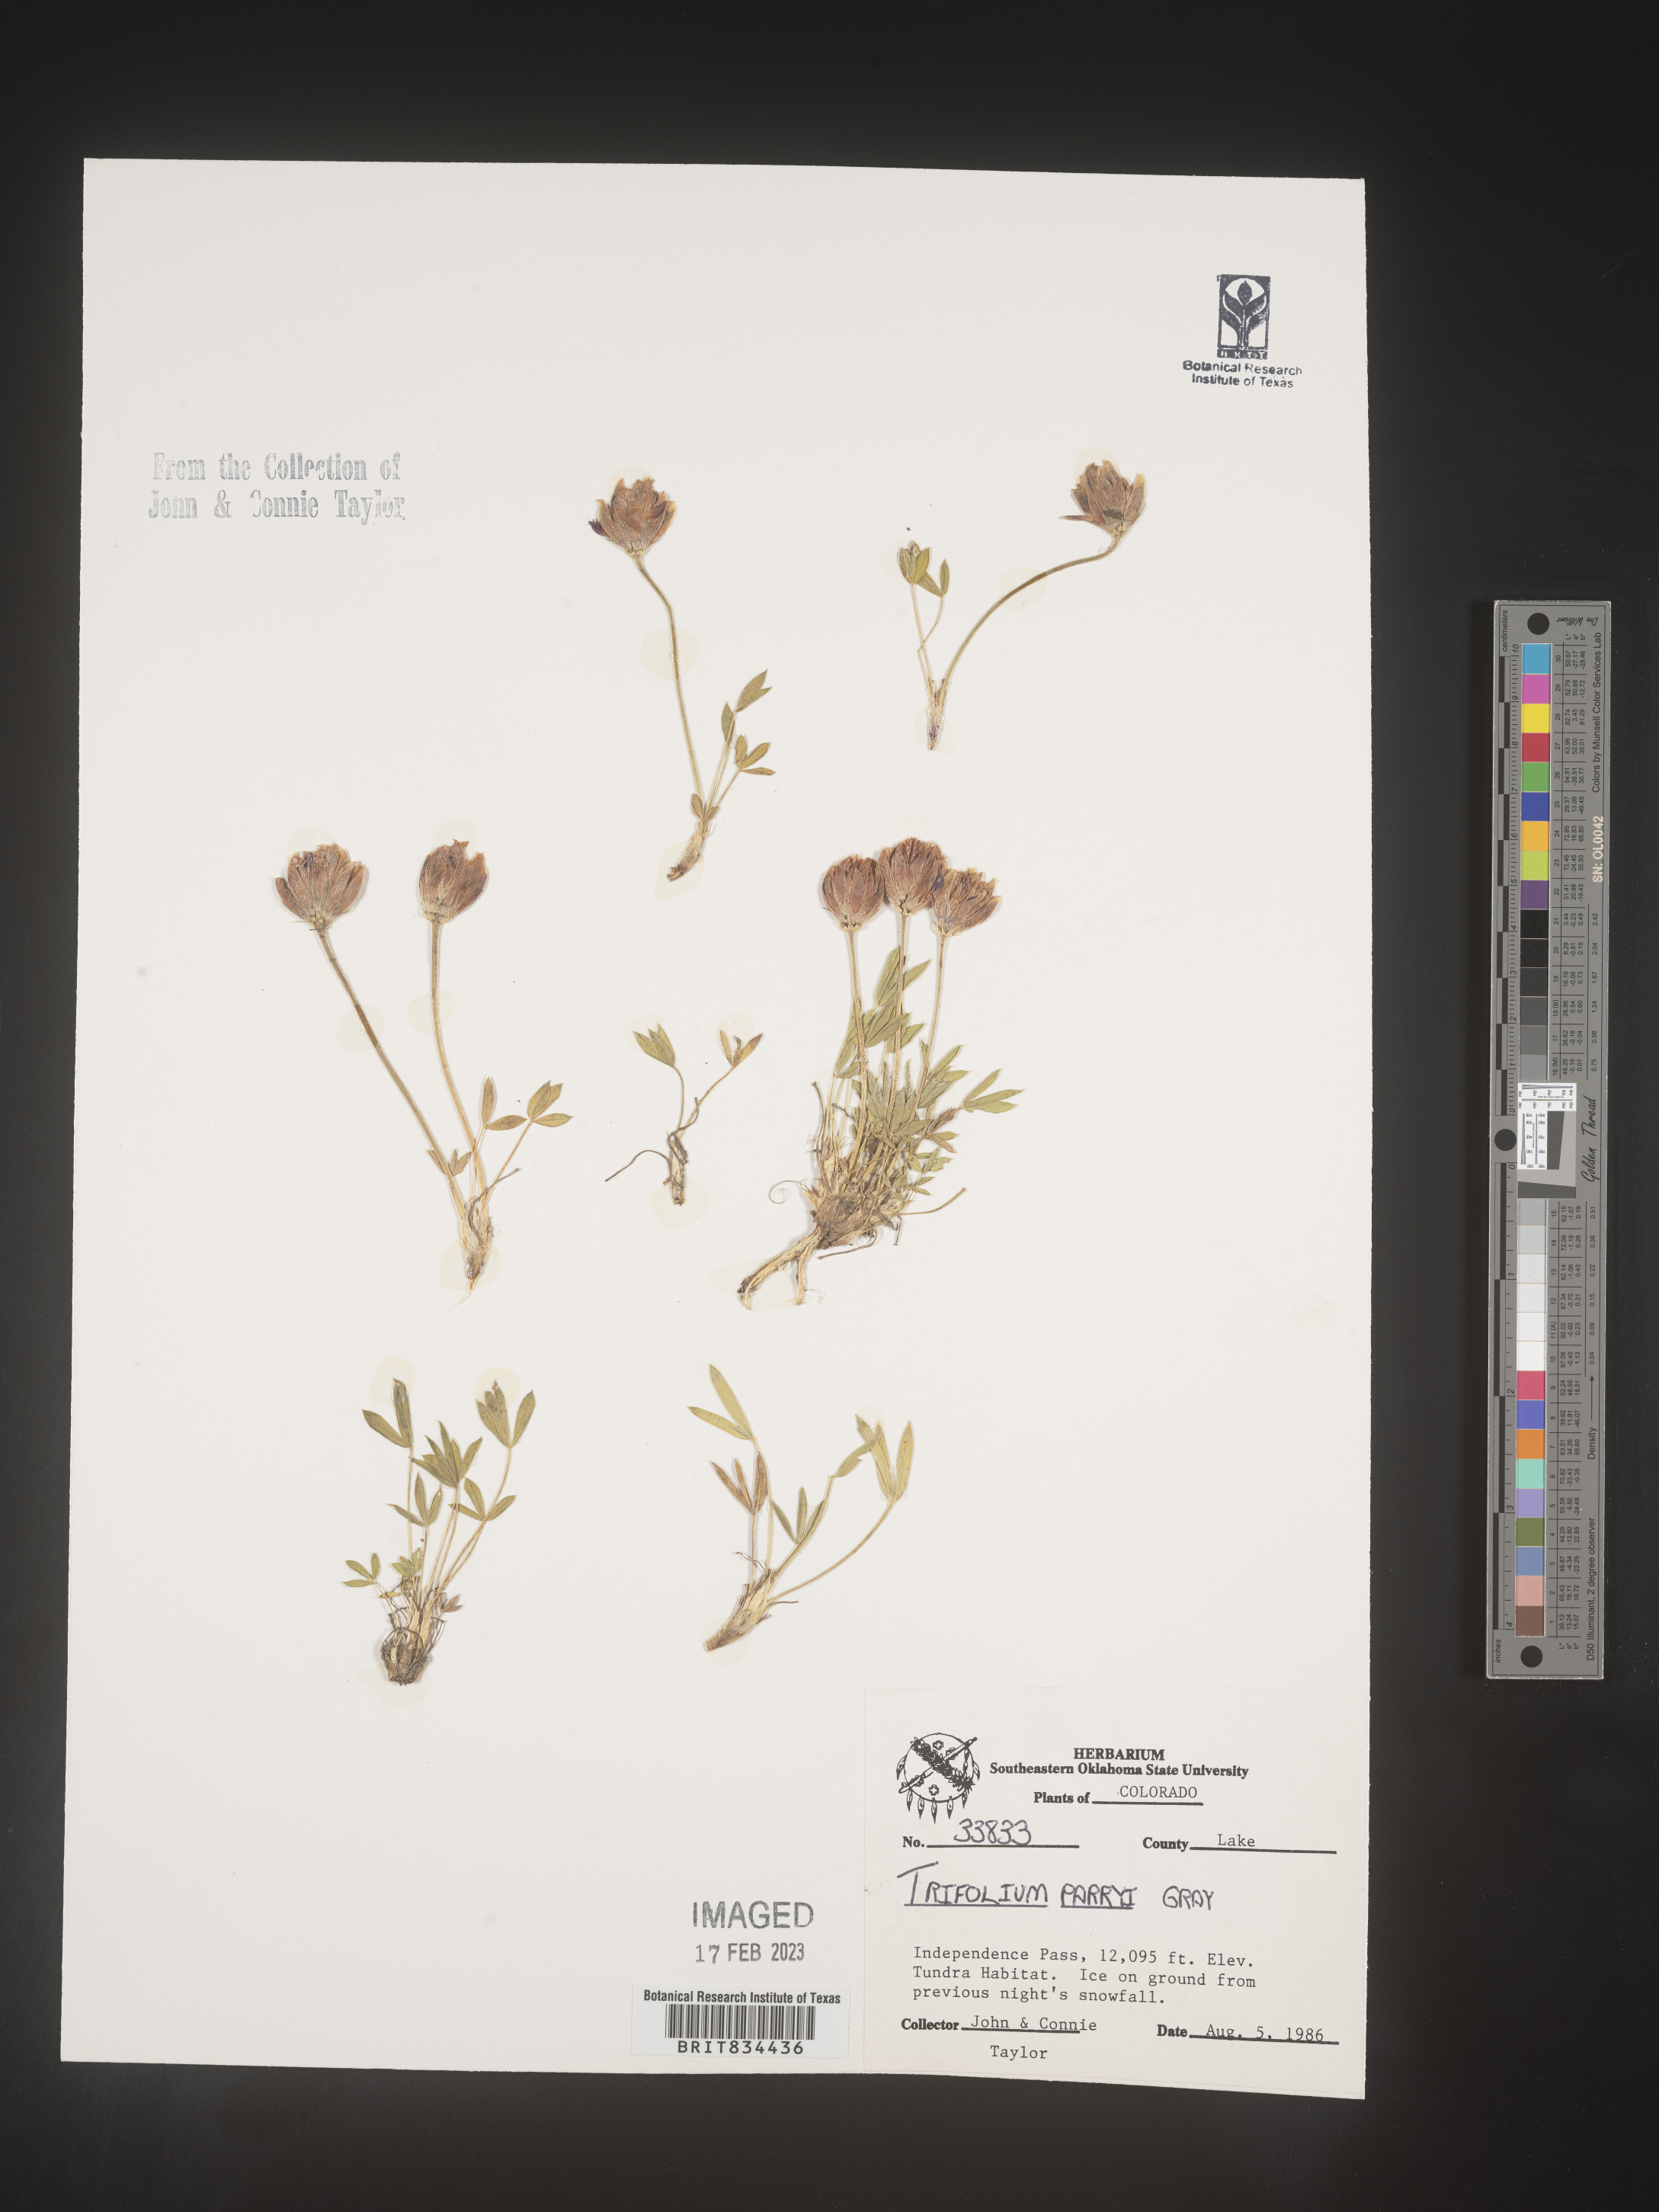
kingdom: Plantae
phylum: Tracheophyta
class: Magnoliopsida
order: Fabales
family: Fabaceae
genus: Trifolium
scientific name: Trifolium
